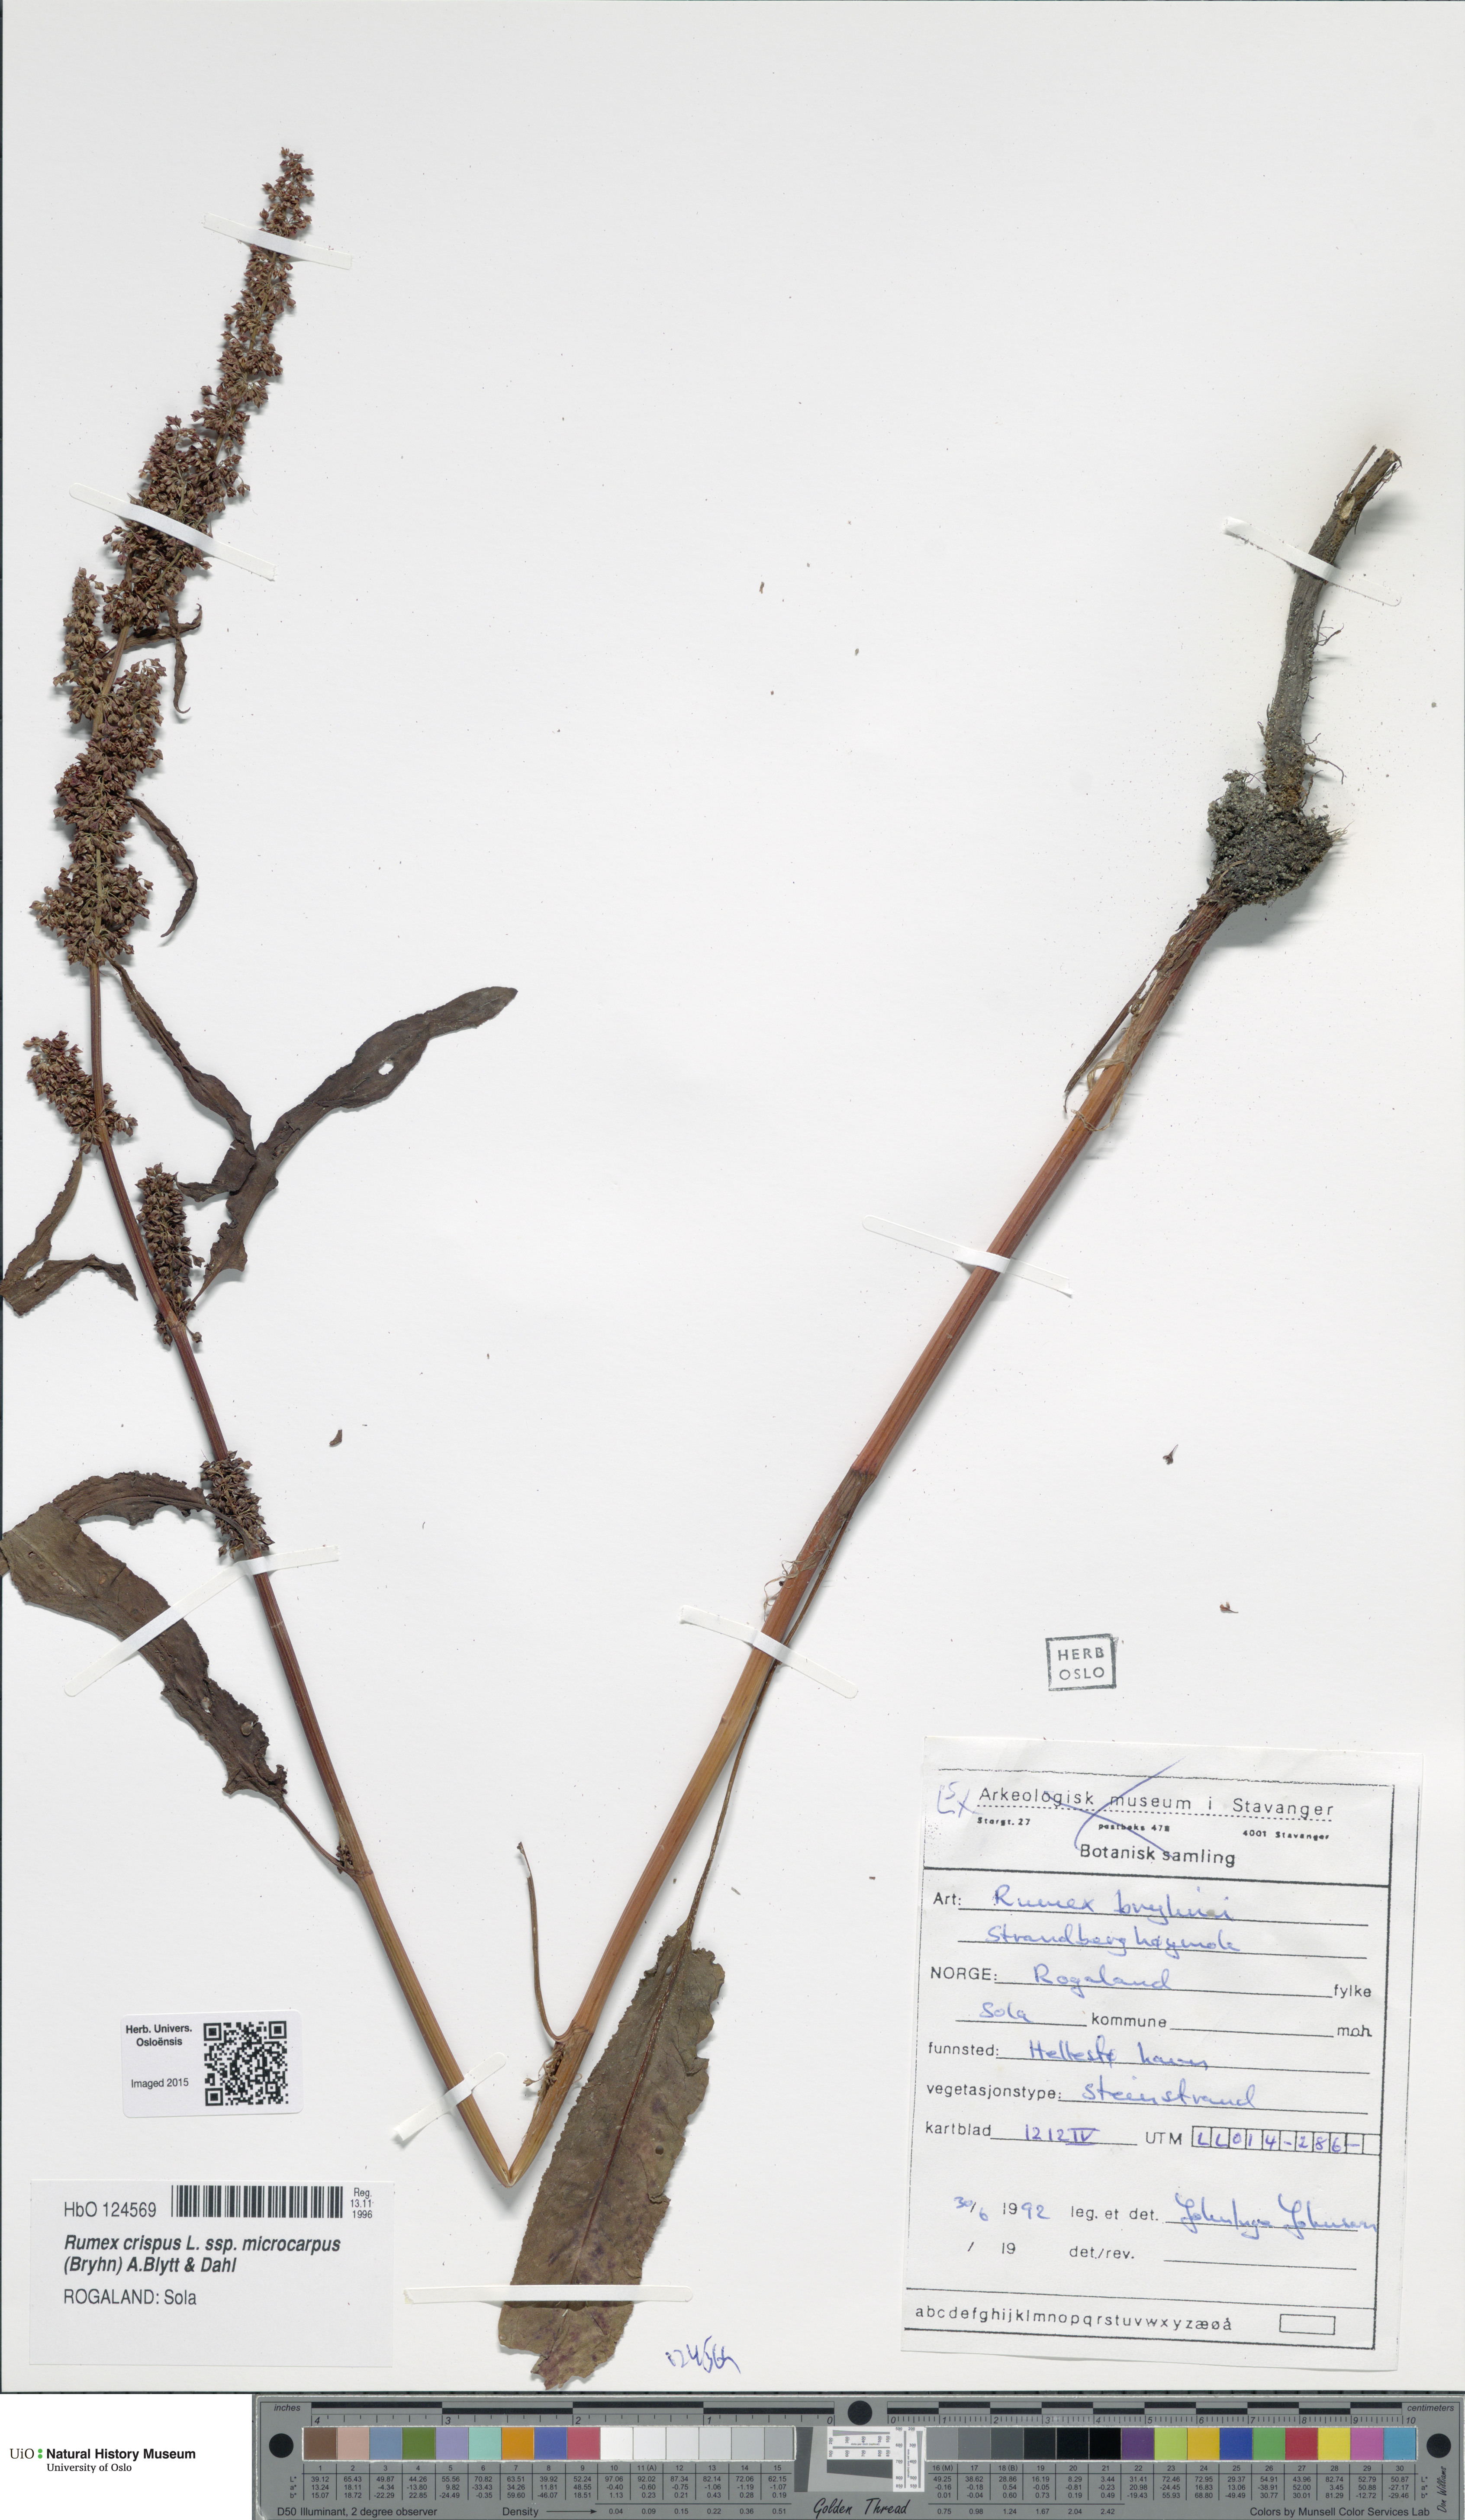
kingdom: Plantae
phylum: Tracheophyta
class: Magnoliopsida
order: Caryophyllales
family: Polygonaceae
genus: Rumex
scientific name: Rumex bryhnii
